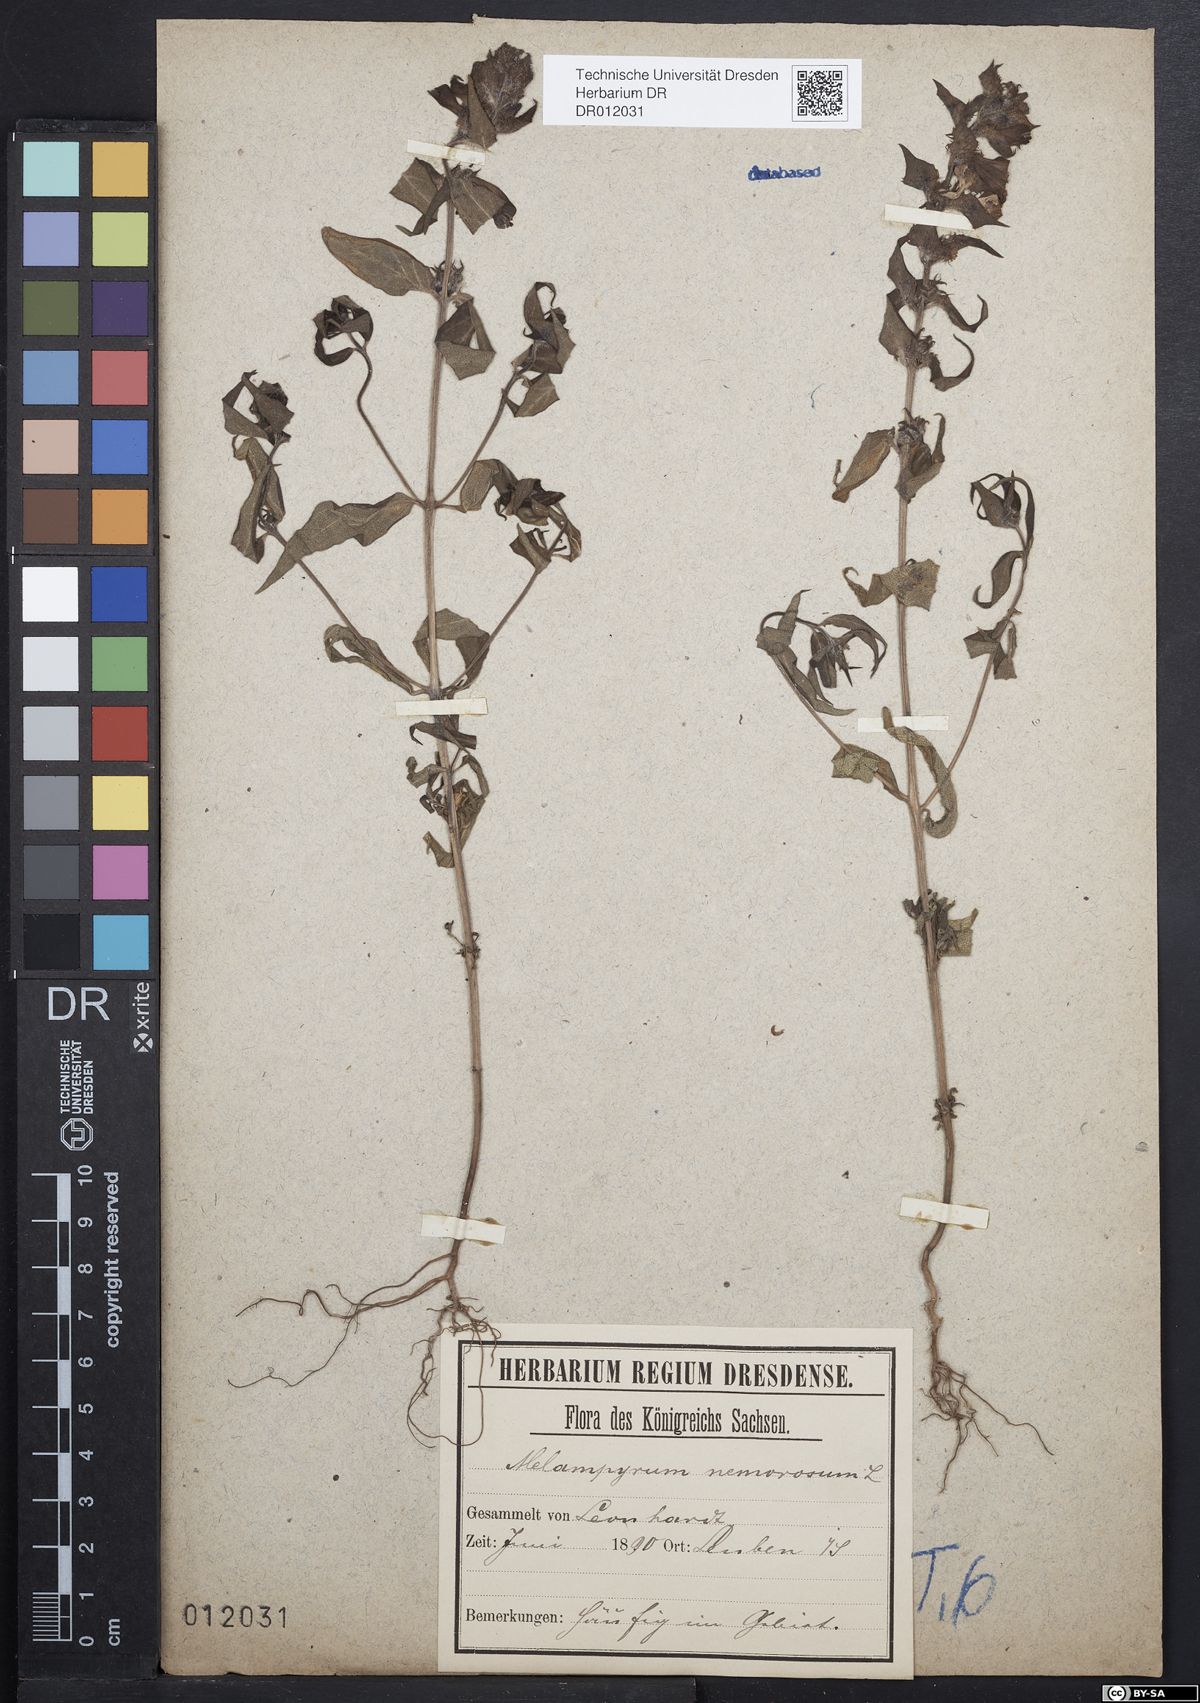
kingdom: Plantae
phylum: Tracheophyta
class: Magnoliopsida
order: Lamiales
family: Orobanchaceae
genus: Melampyrum
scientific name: Melampyrum nemorosum
